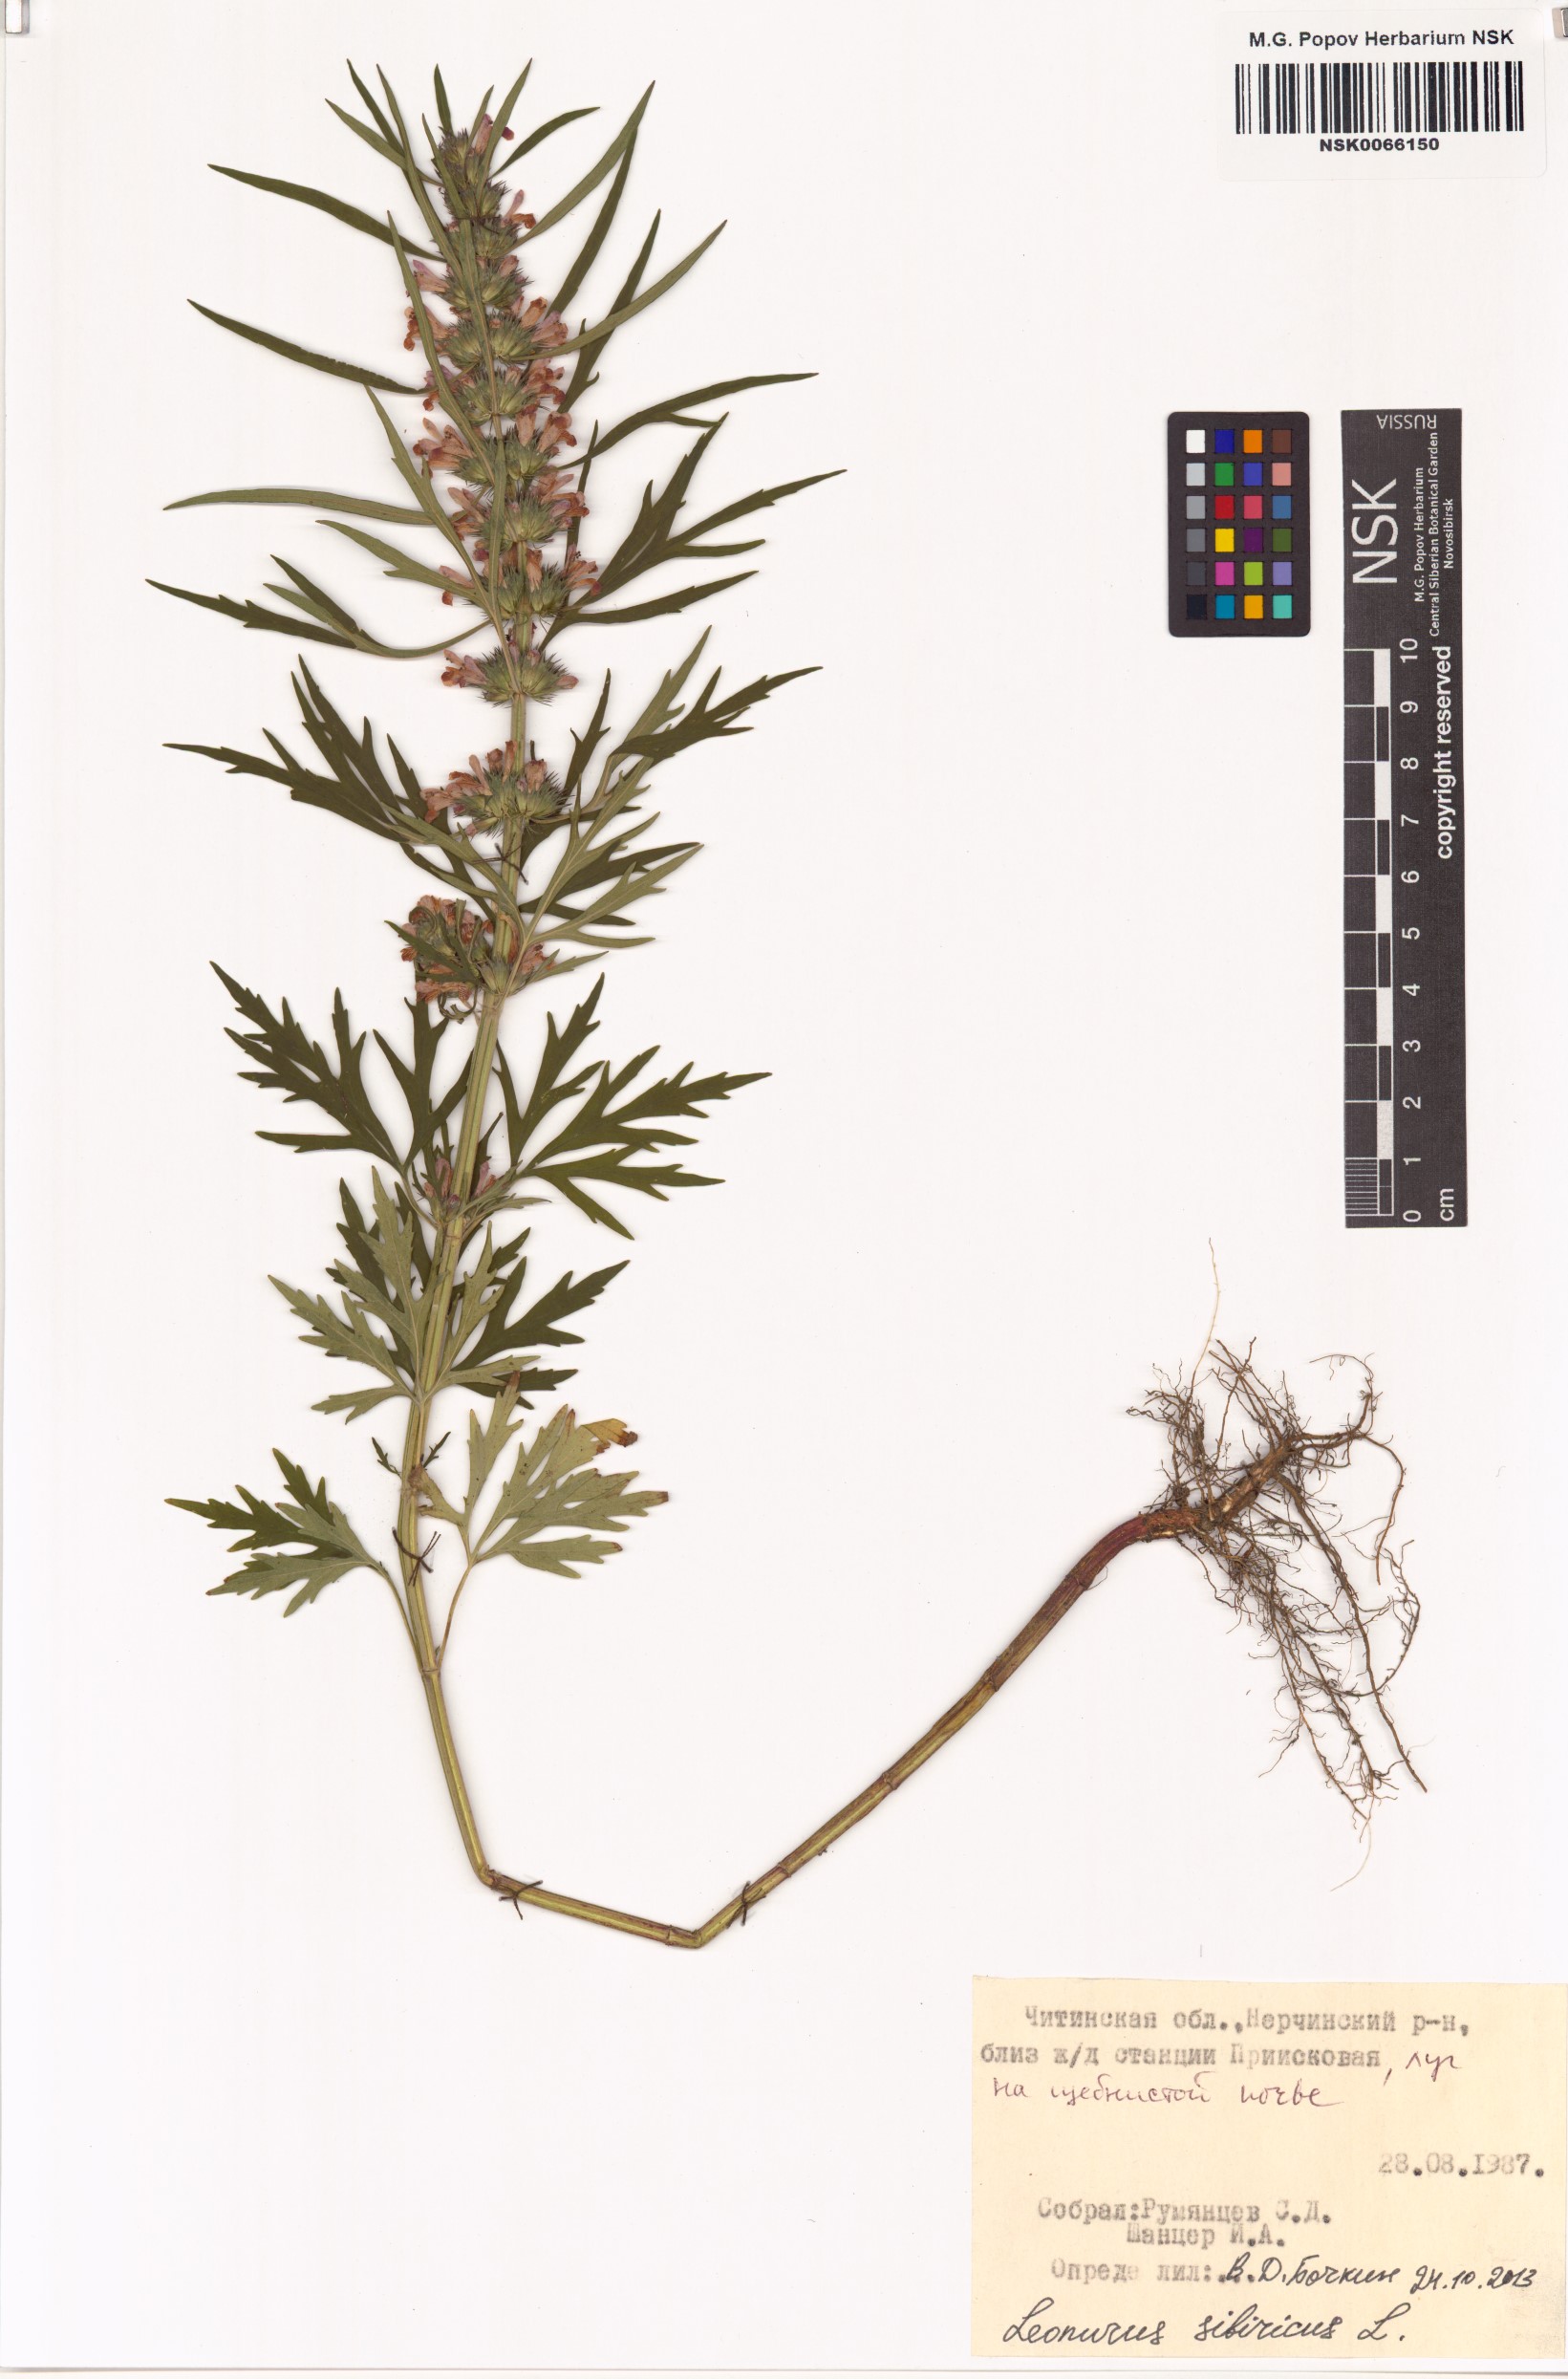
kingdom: Plantae
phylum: Tracheophyta
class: Magnoliopsida
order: Lamiales
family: Lamiaceae
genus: Leonurus
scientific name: Leonurus sibiricus
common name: Honeyweed
